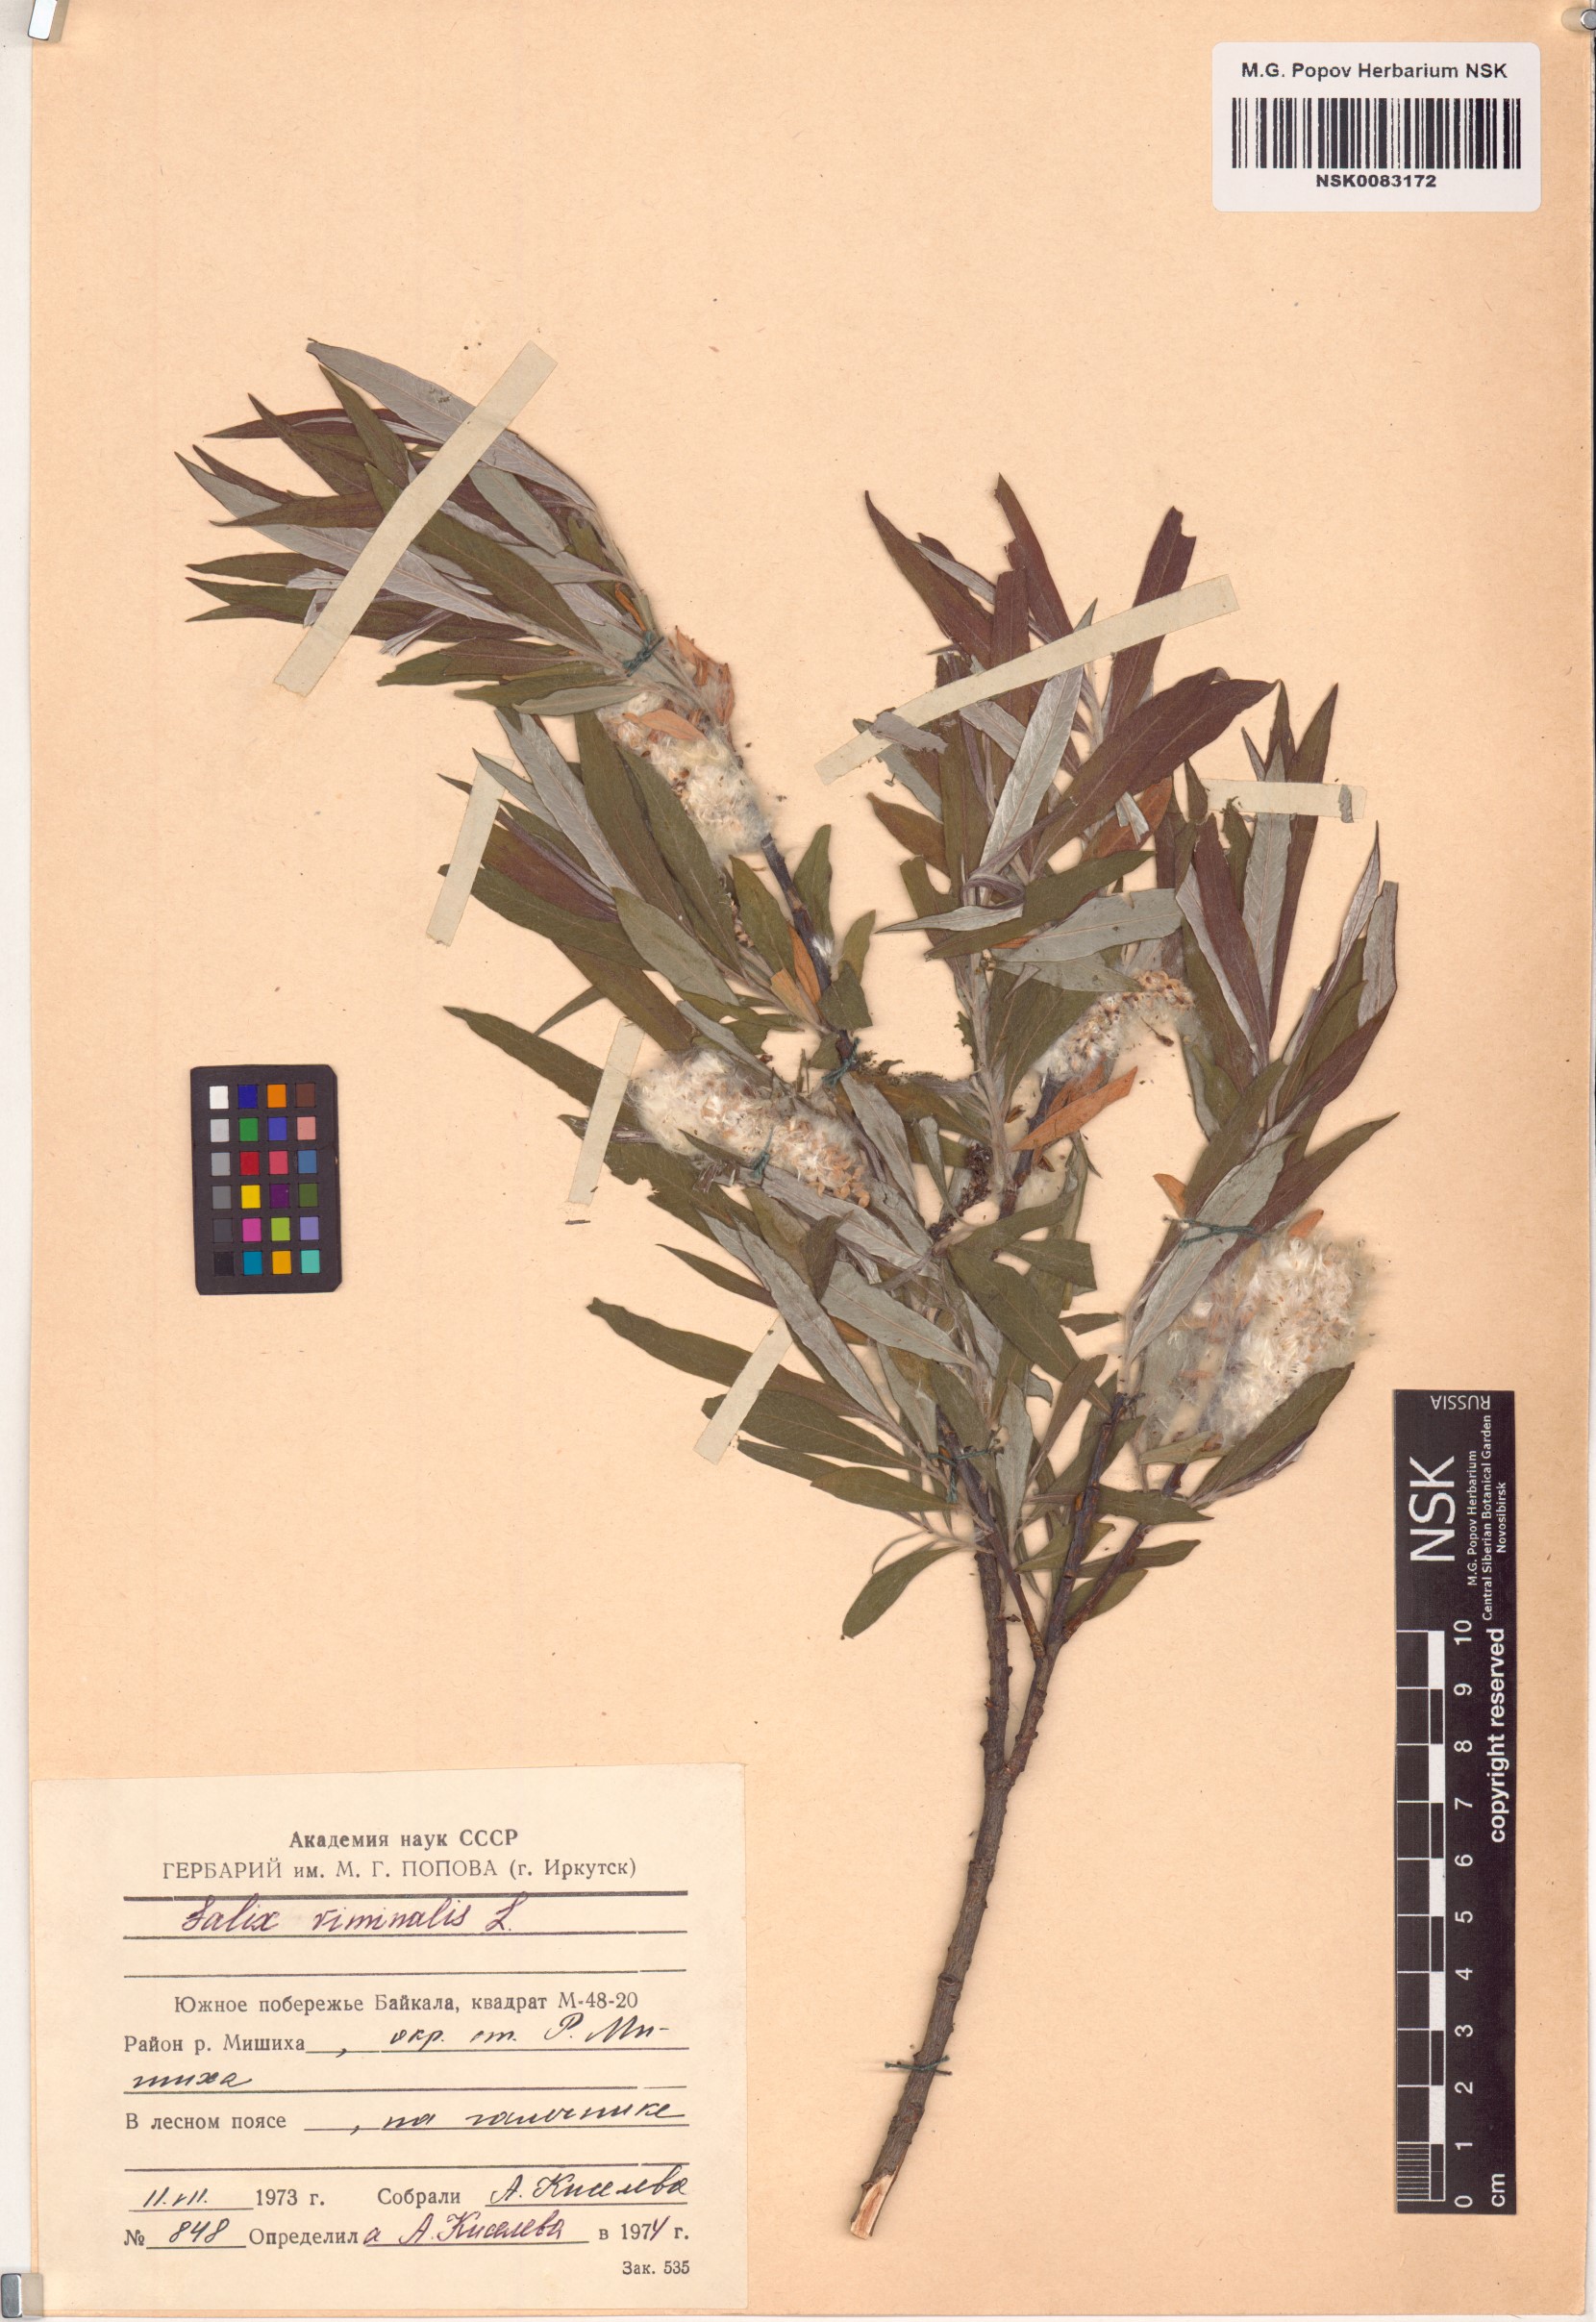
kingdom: Plantae
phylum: Tracheophyta
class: Magnoliopsida
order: Malpighiales
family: Salicaceae
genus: Salix
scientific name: Salix viminalis
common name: Osier
